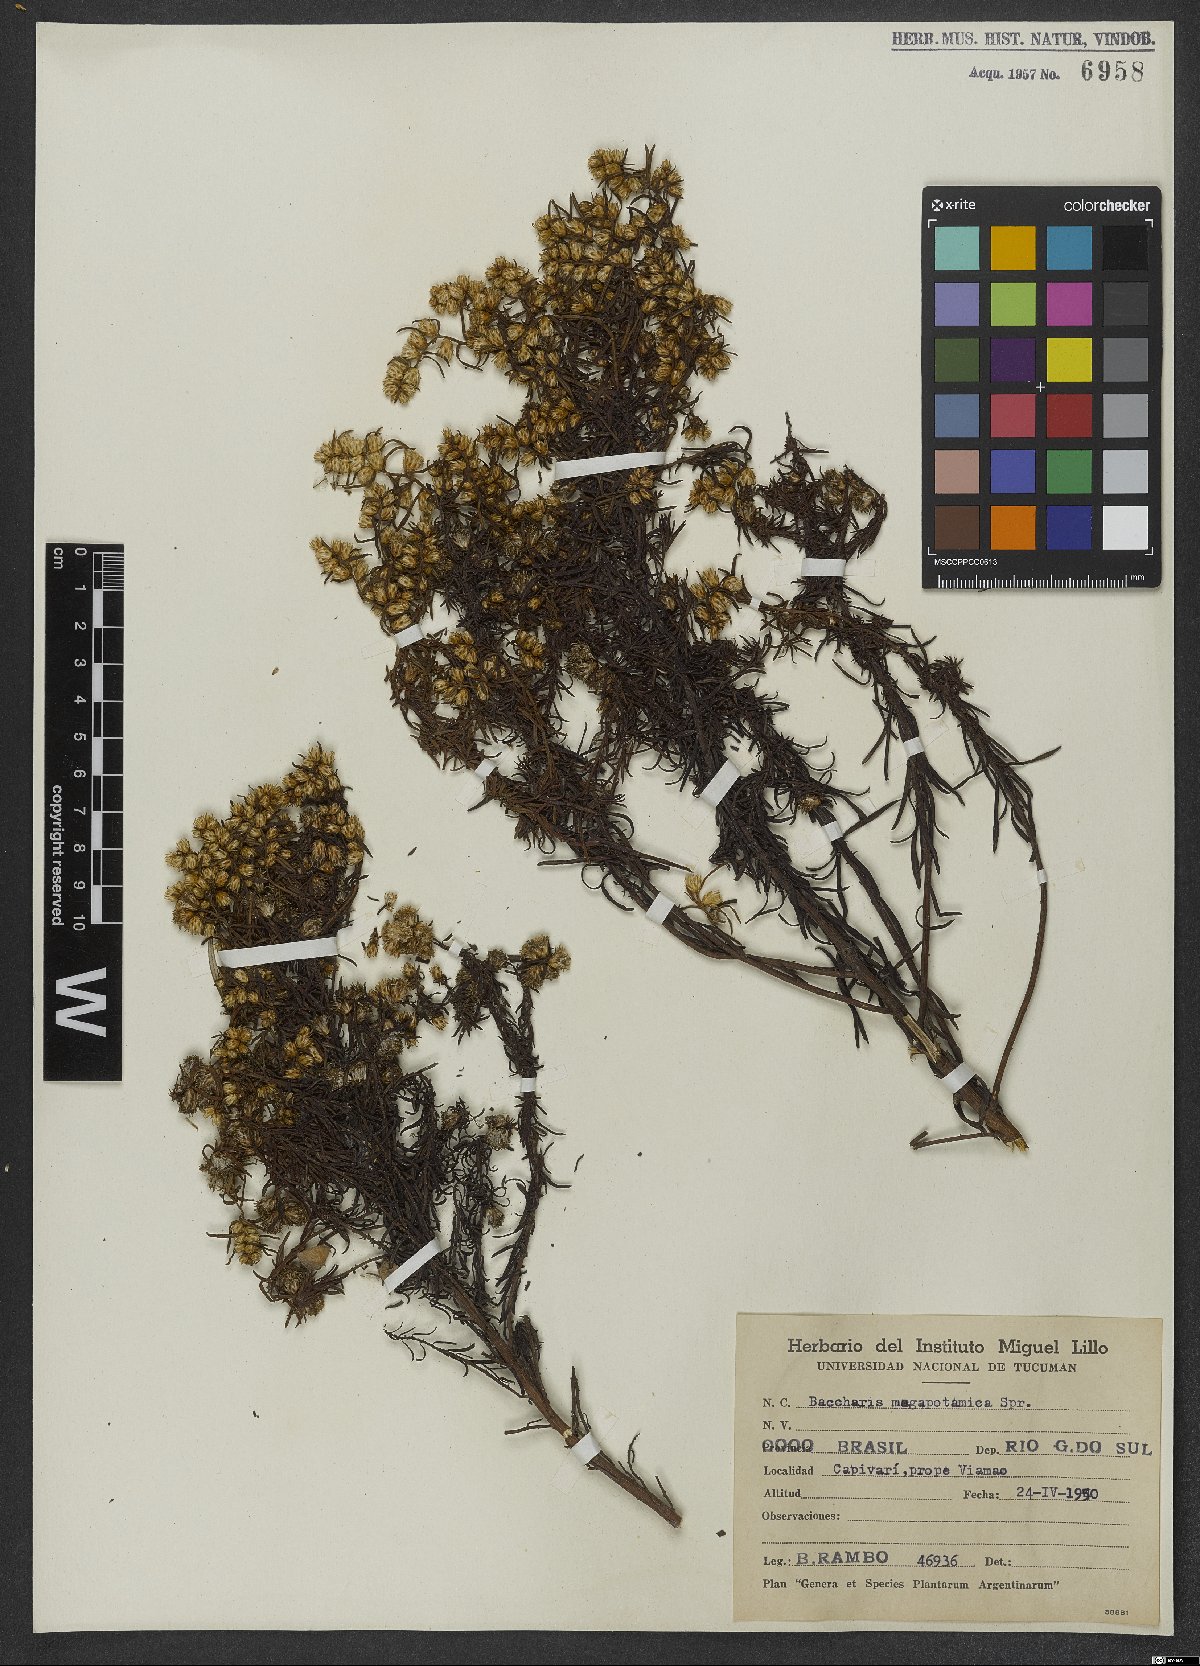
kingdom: Plantae
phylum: Tracheophyta
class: Magnoliopsida
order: Asterales
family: Asteraceae
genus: Baccharis
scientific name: Baccharis megapotamica
